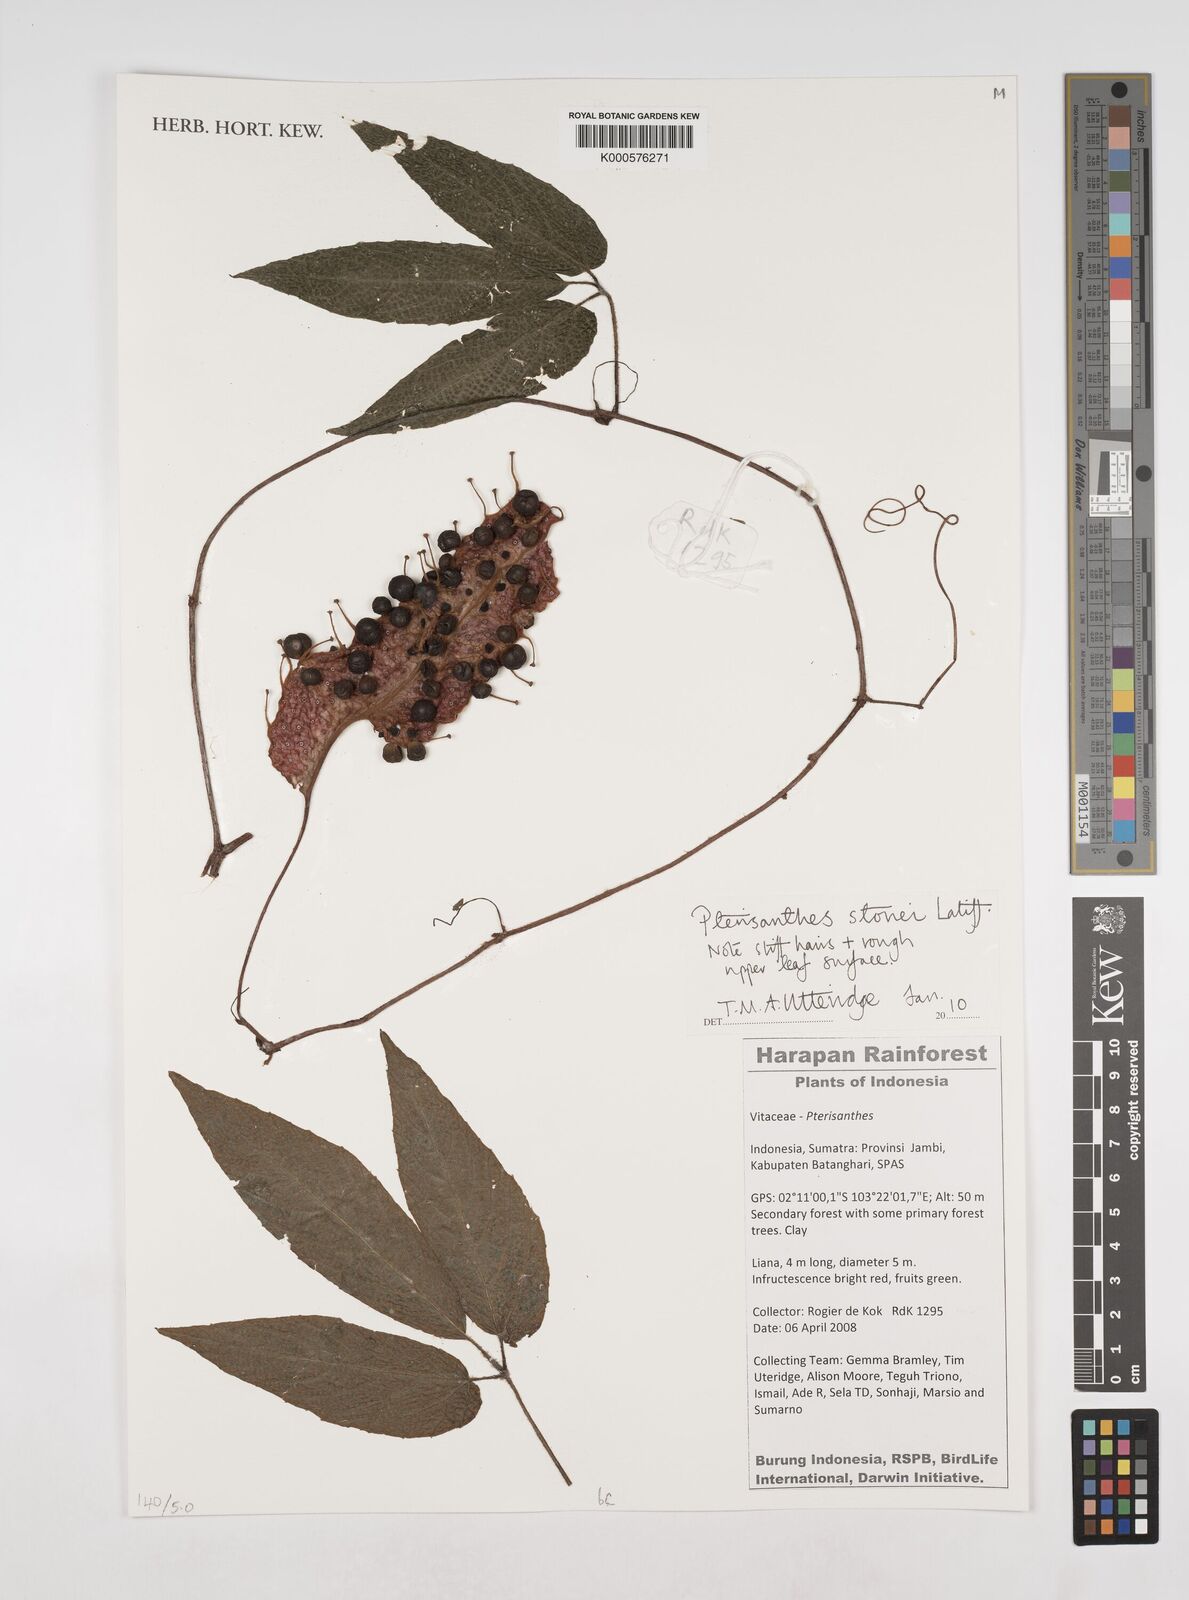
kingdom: Plantae
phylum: Tracheophyta
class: Magnoliopsida
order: Vitales
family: Vitaceae
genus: Pterisanthes
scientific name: Pterisanthes stonei
